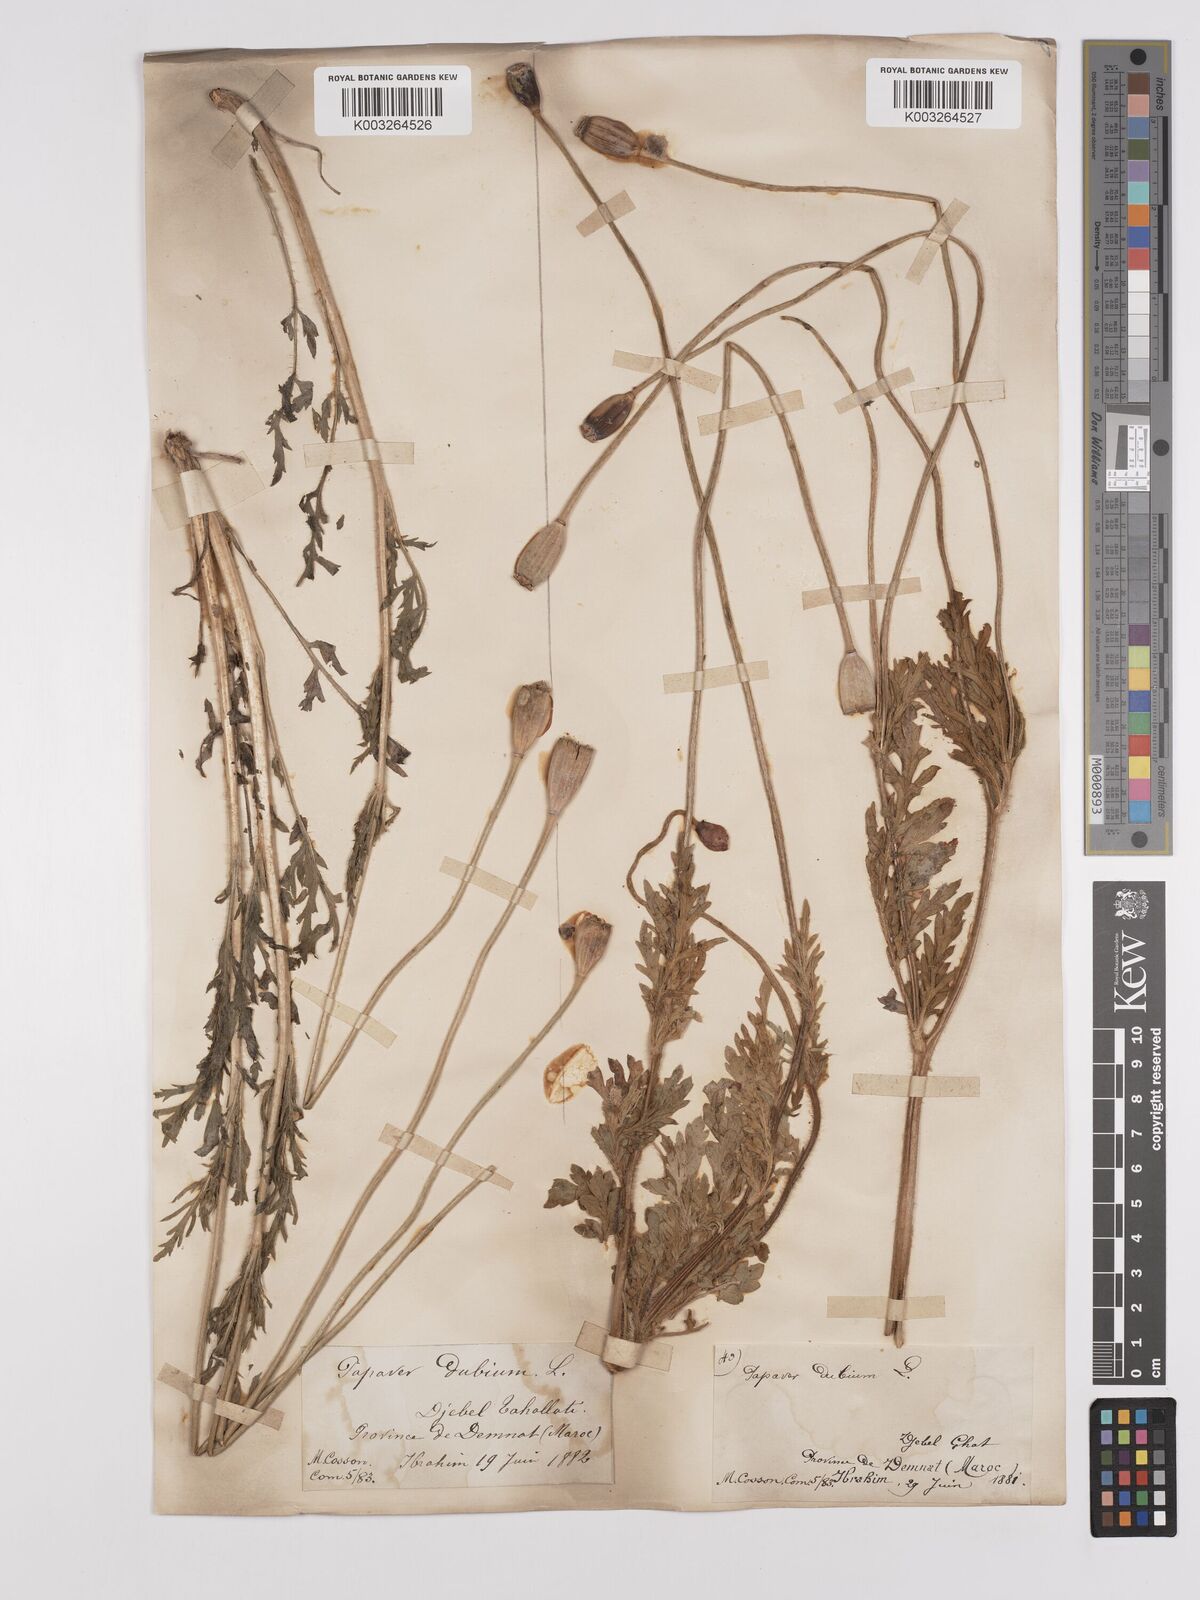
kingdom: Plantae
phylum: Tracheophyta
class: Magnoliopsida
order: Ranunculales
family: Papaveraceae
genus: Papaver
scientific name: Papaver dubium
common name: Long-headed poppy
